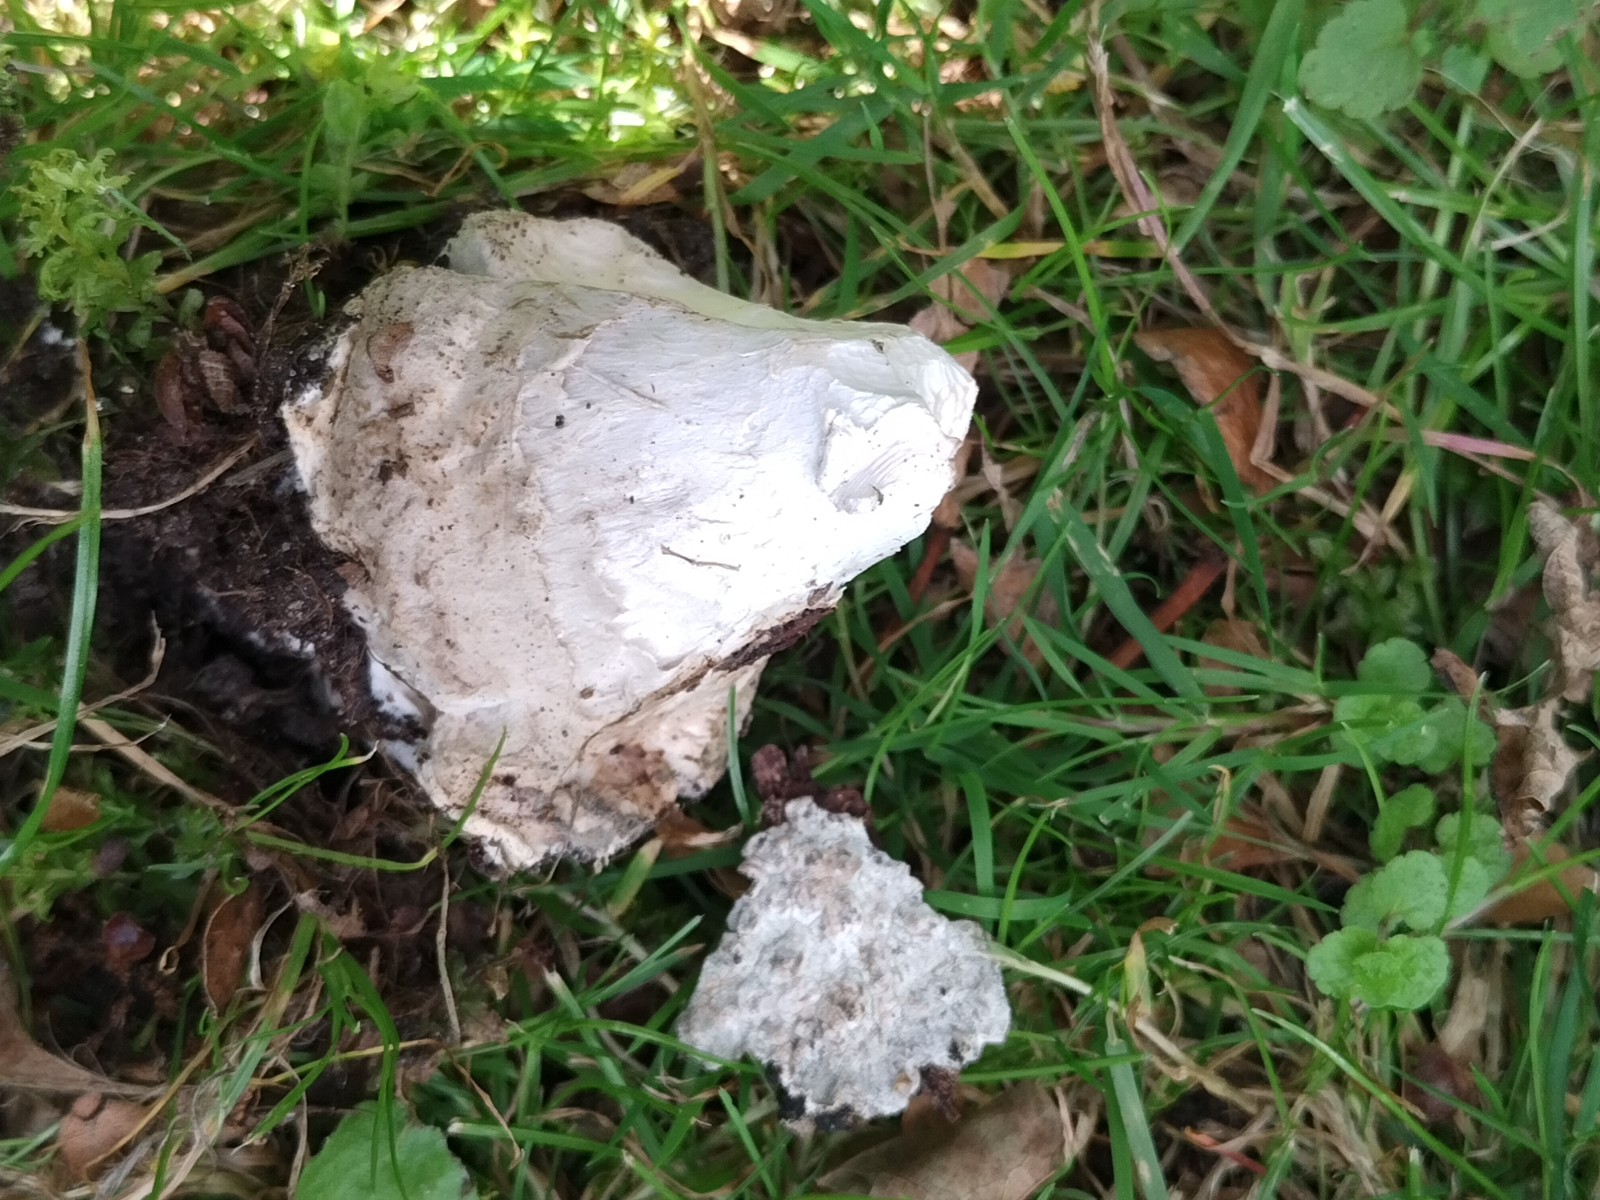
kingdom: Fungi
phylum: Basidiomycota
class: Agaricomycetes
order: Agaricales
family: Amanitaceae
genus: Amanita
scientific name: Amanita
